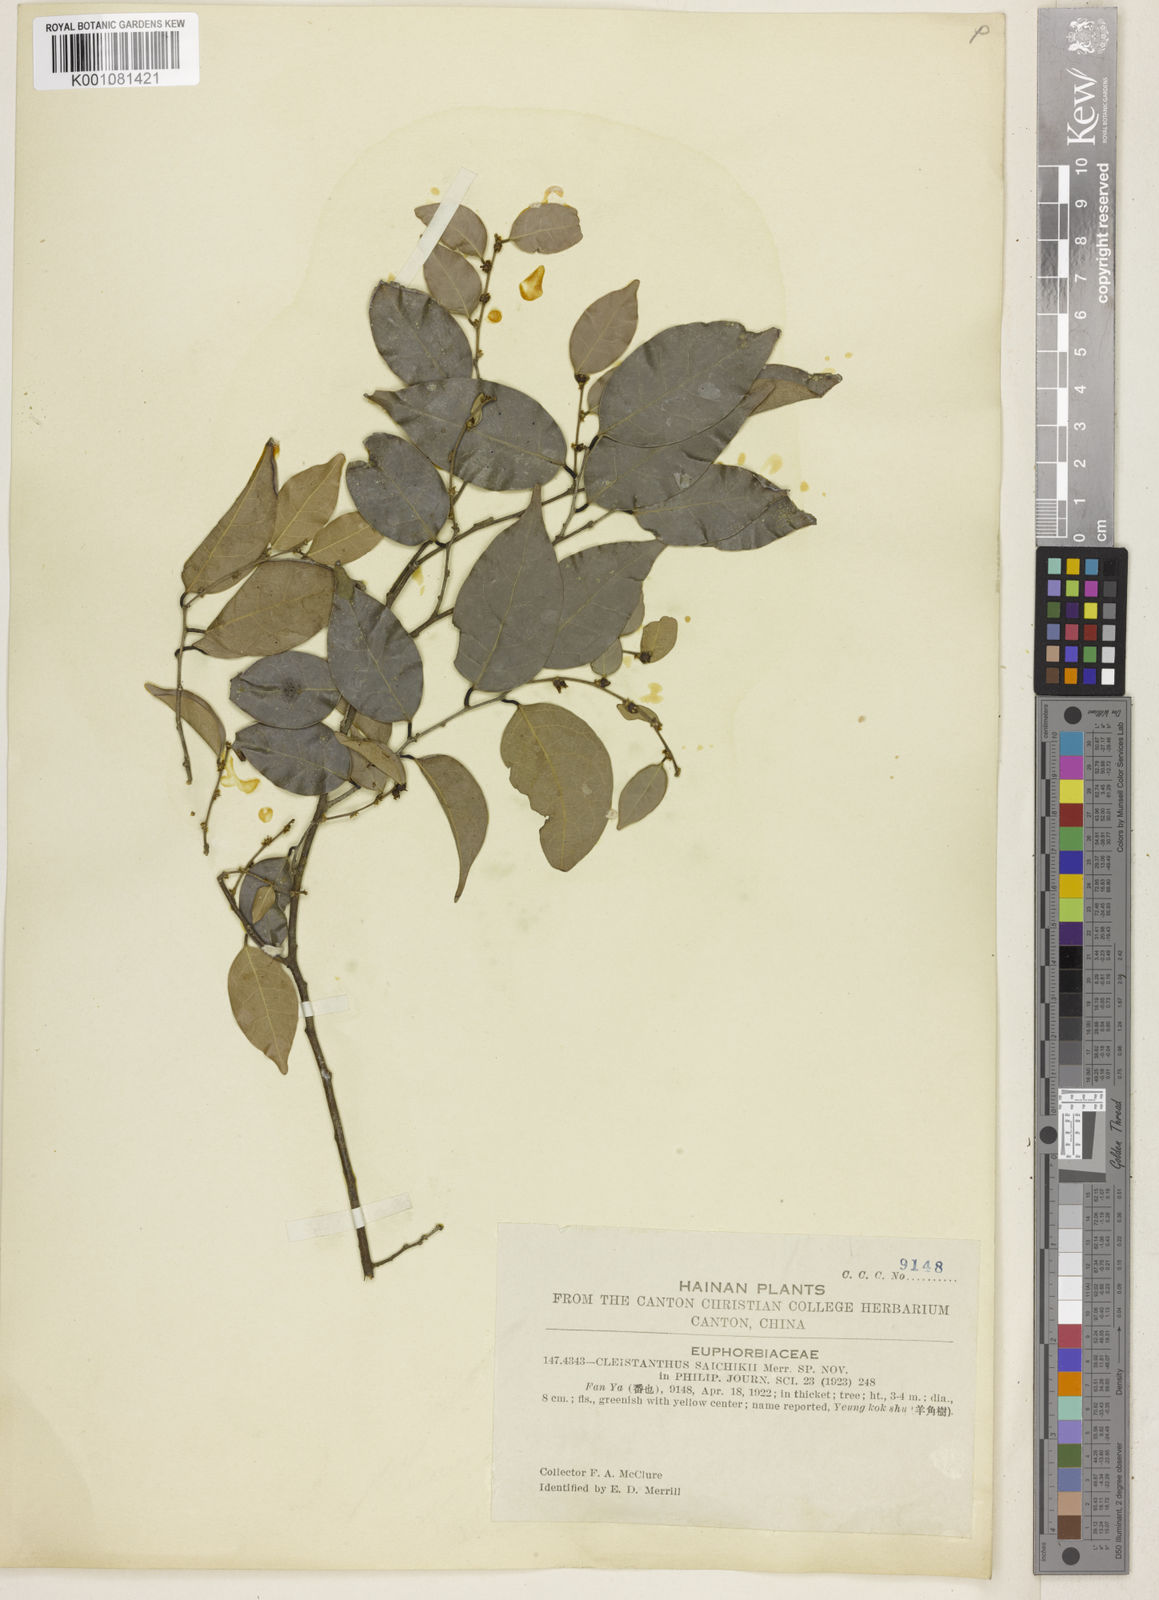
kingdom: Plantae
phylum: Tracheophyta
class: Magnoliopsida
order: Malpighiales
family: Phyllanthaceae
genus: Cleistanthus
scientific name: Cleistanthus
